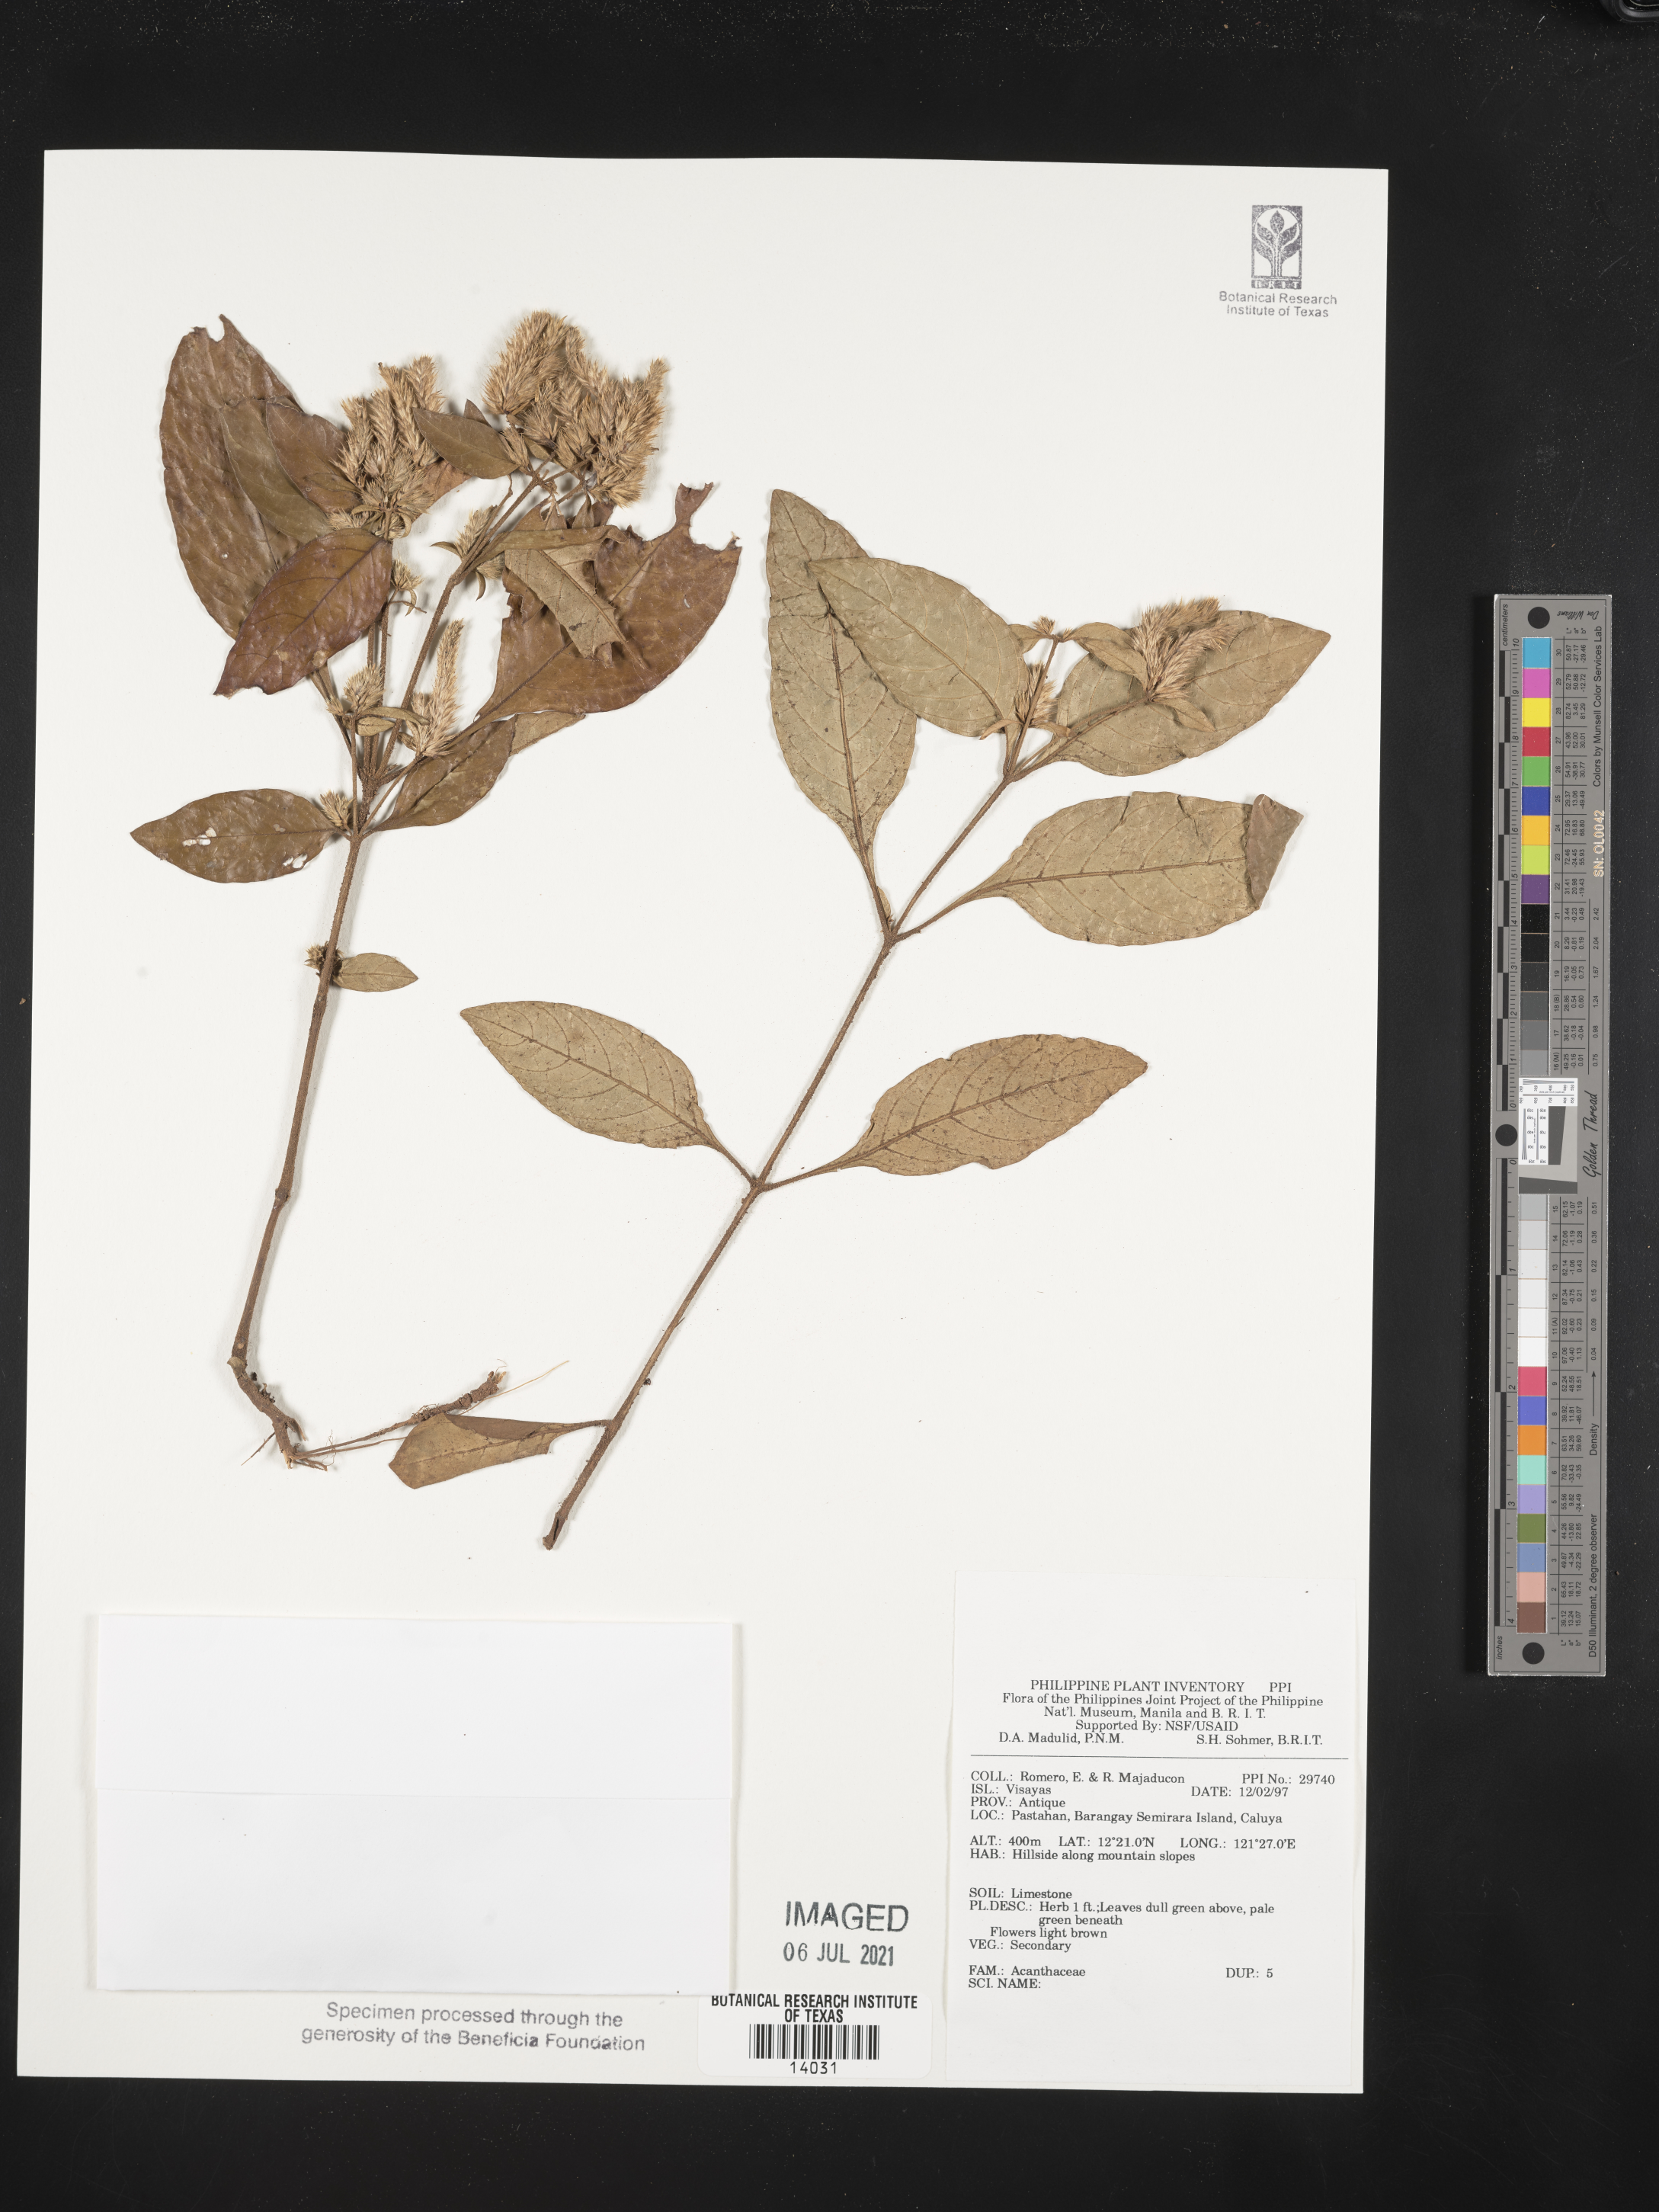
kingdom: Plantae
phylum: Tracheophyta
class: Magnoliopsida
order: Lamiales
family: Acanthaceae
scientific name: Acanthaceae
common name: Acanthaceae
